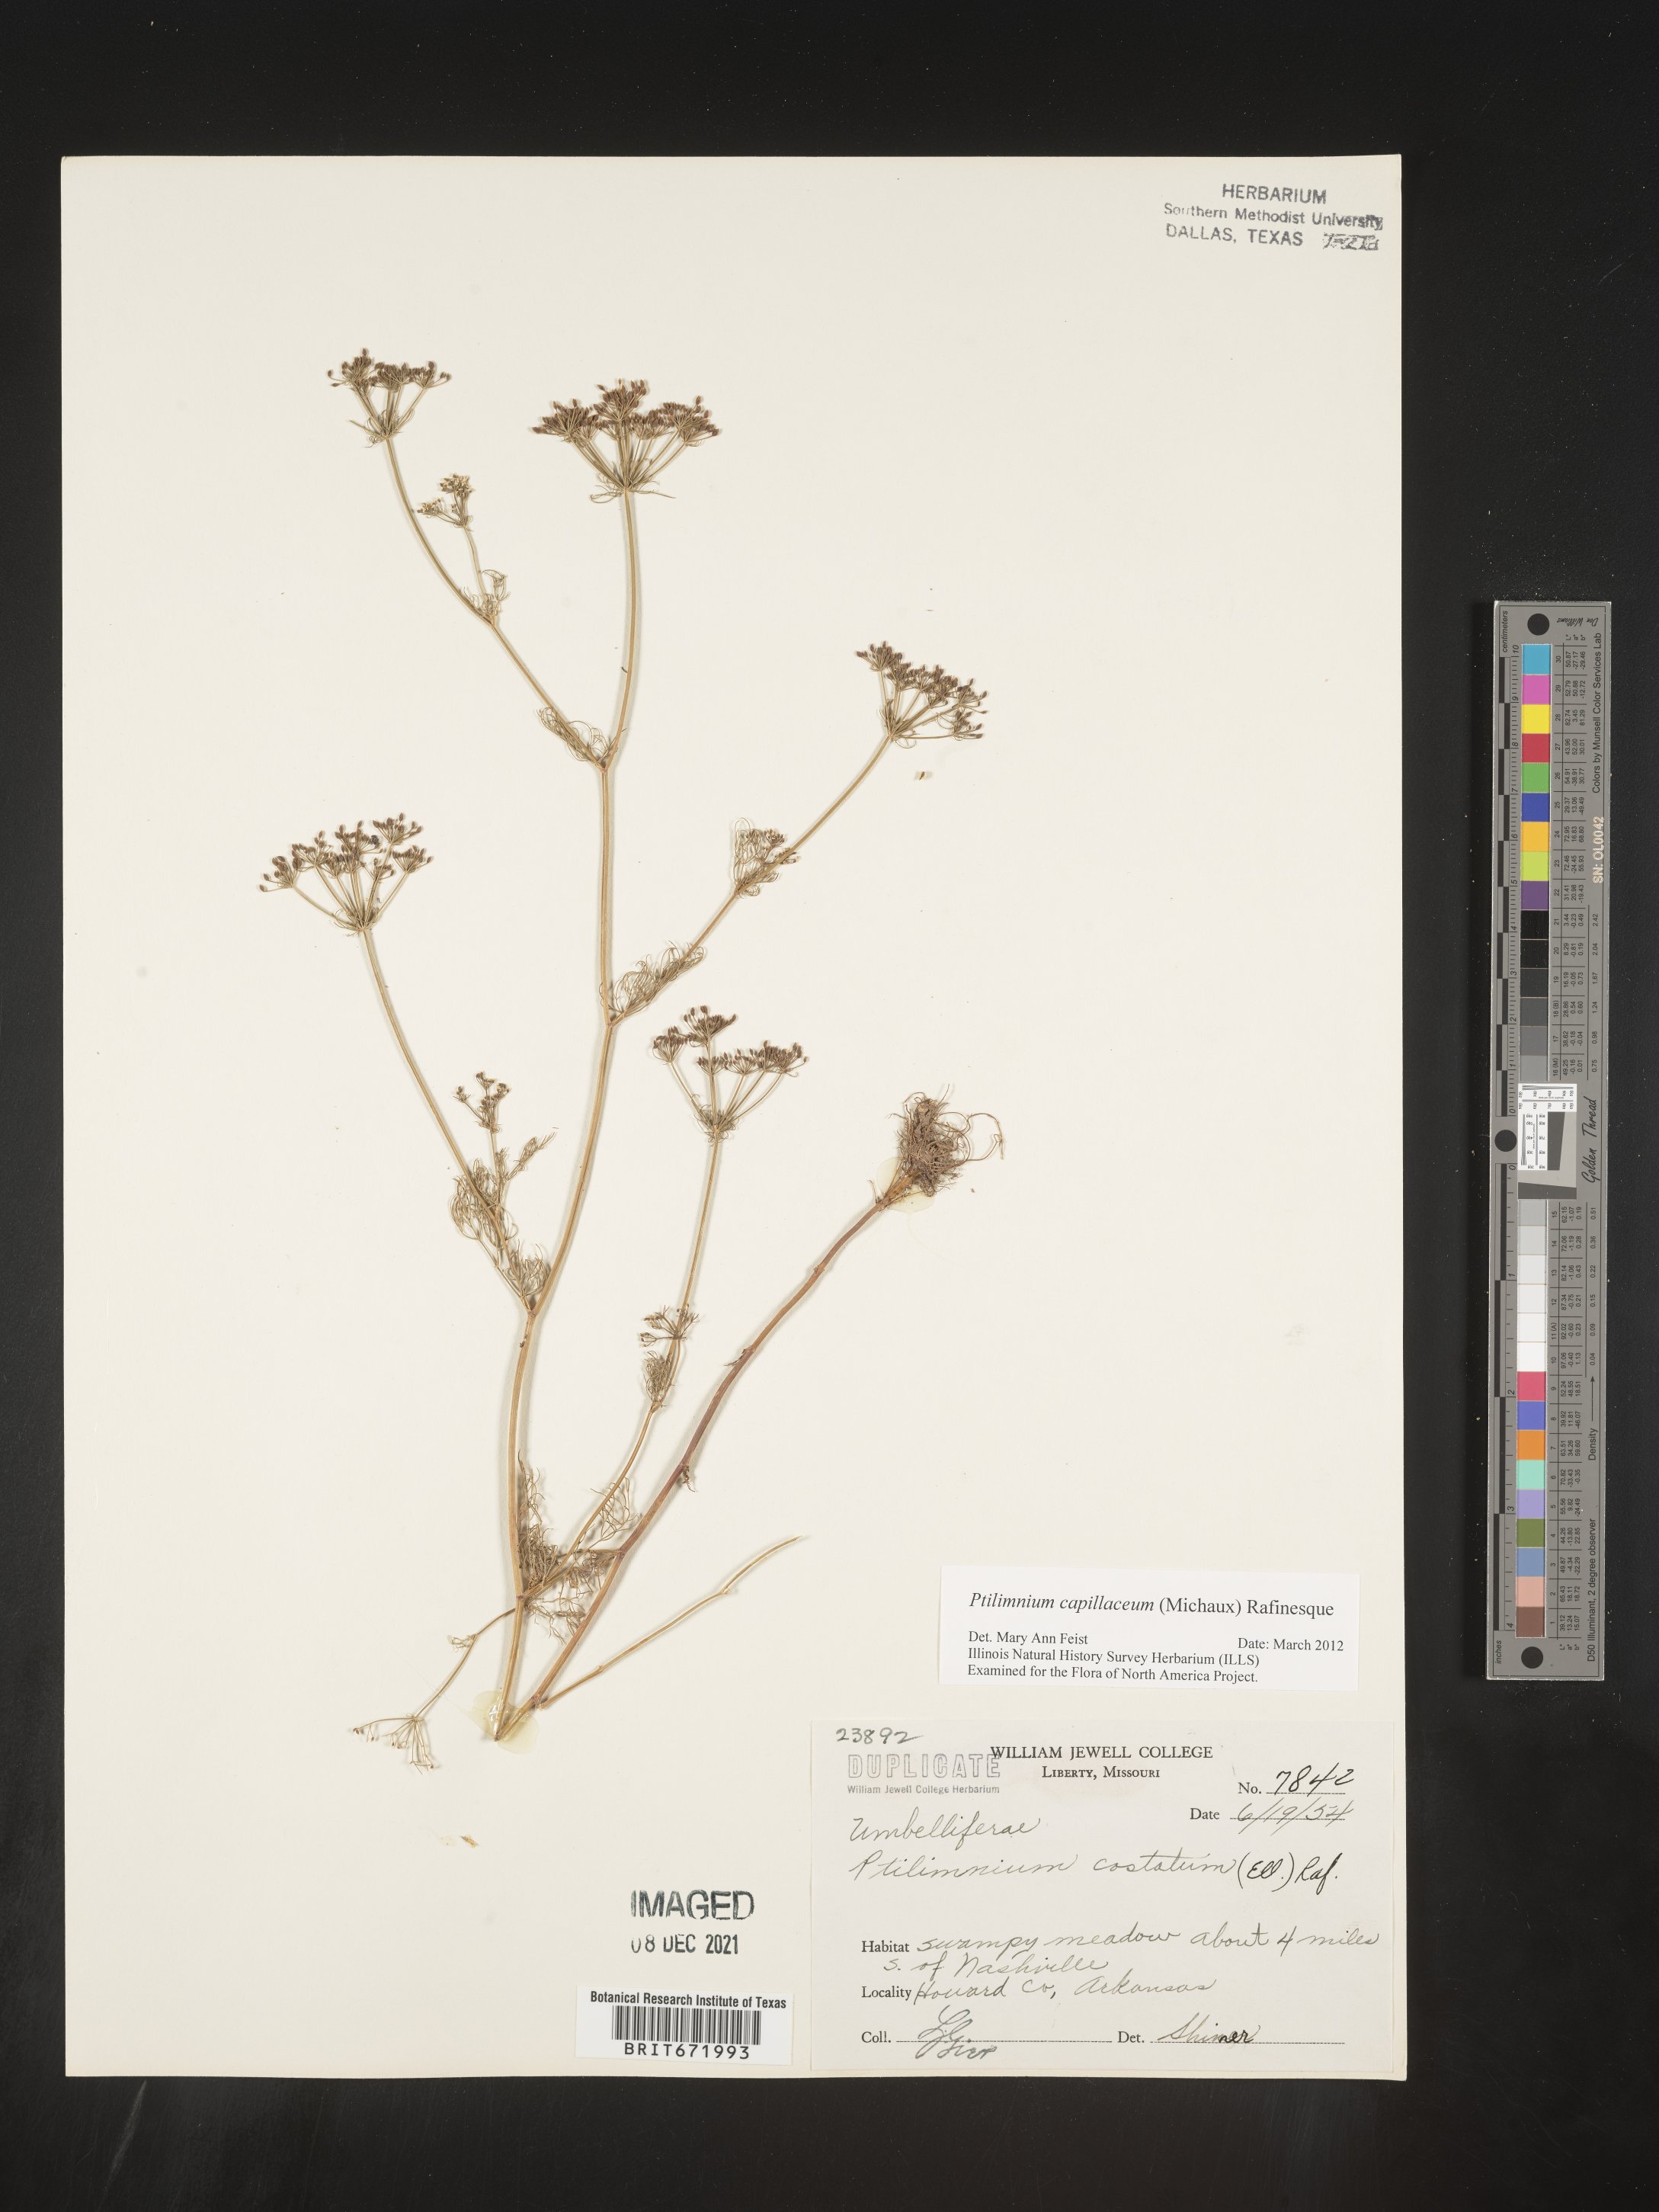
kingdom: Plantae
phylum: Tracheophyta
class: Magnoliopsida
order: Apiales
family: Apiaceae
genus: Ptilimnium
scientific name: Ptilimnium capillaceum
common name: Herbwilliam
